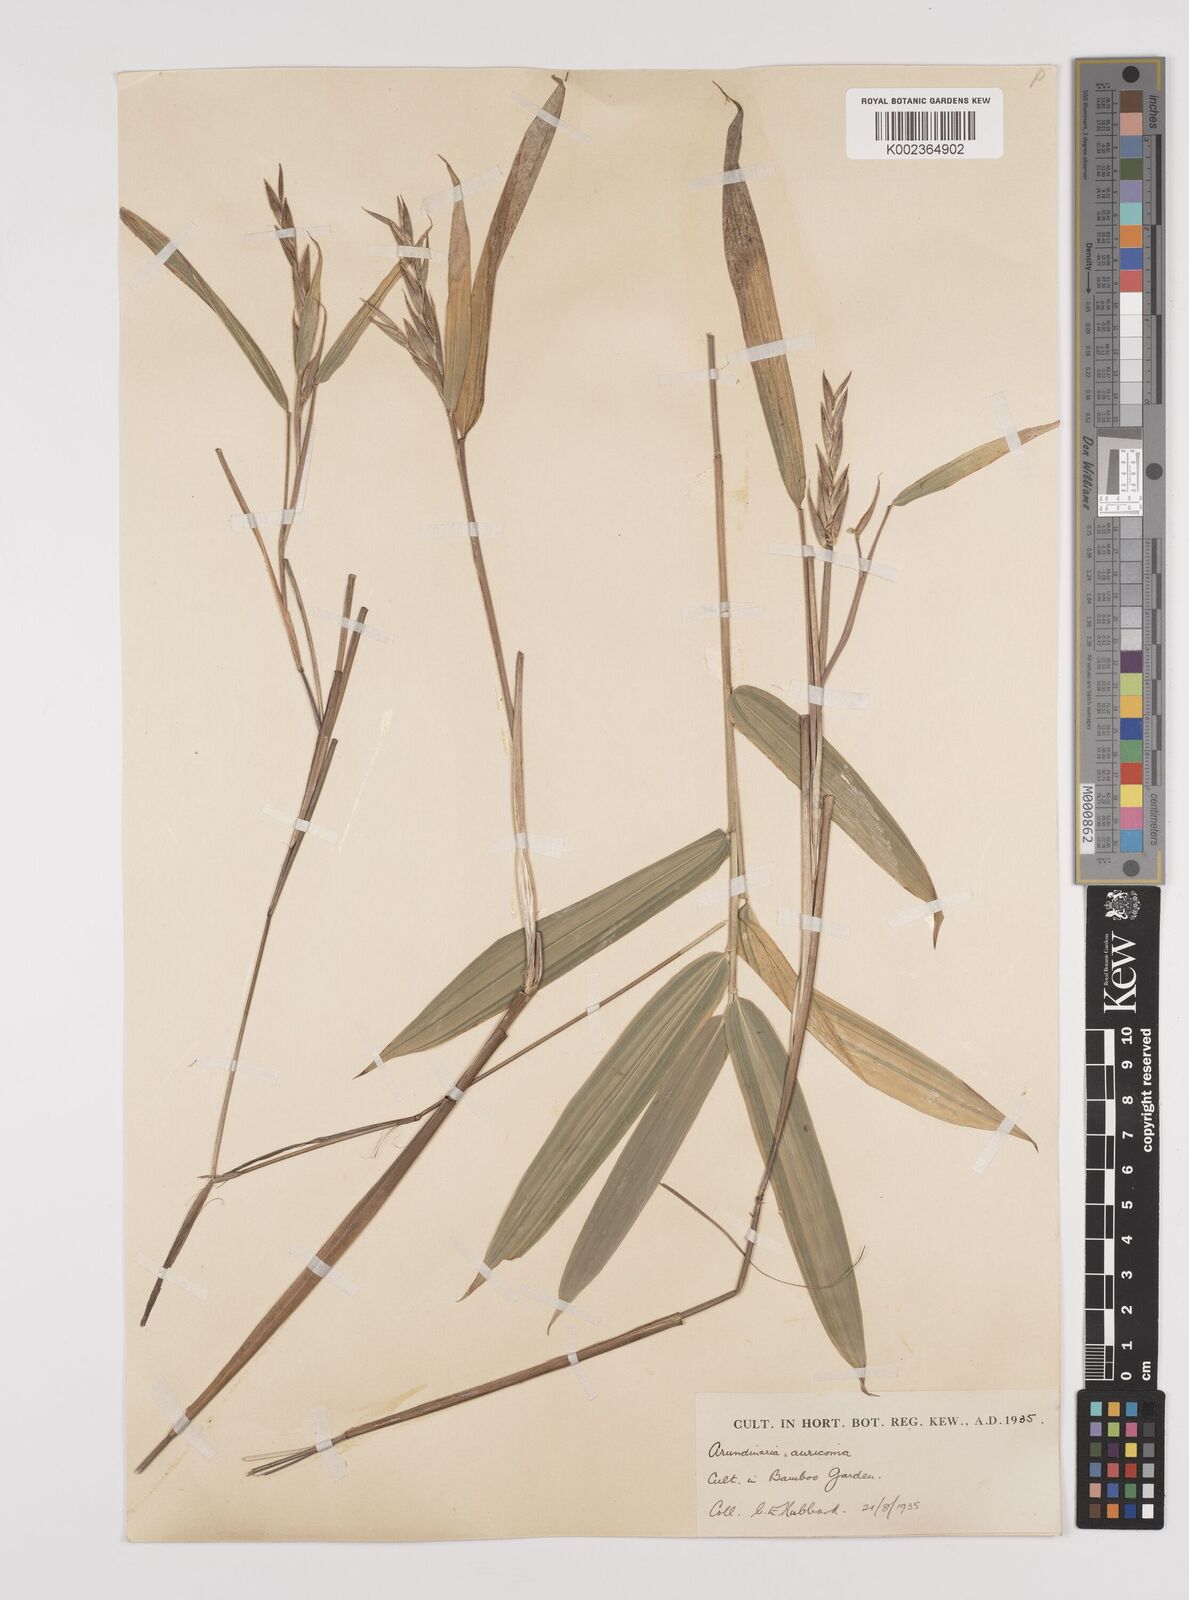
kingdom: Plantae
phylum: Tracheophyta
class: Liliopsida
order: Poales
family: Poaceae
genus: Pleioblastus
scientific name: Pleioblastus viridistriatus
